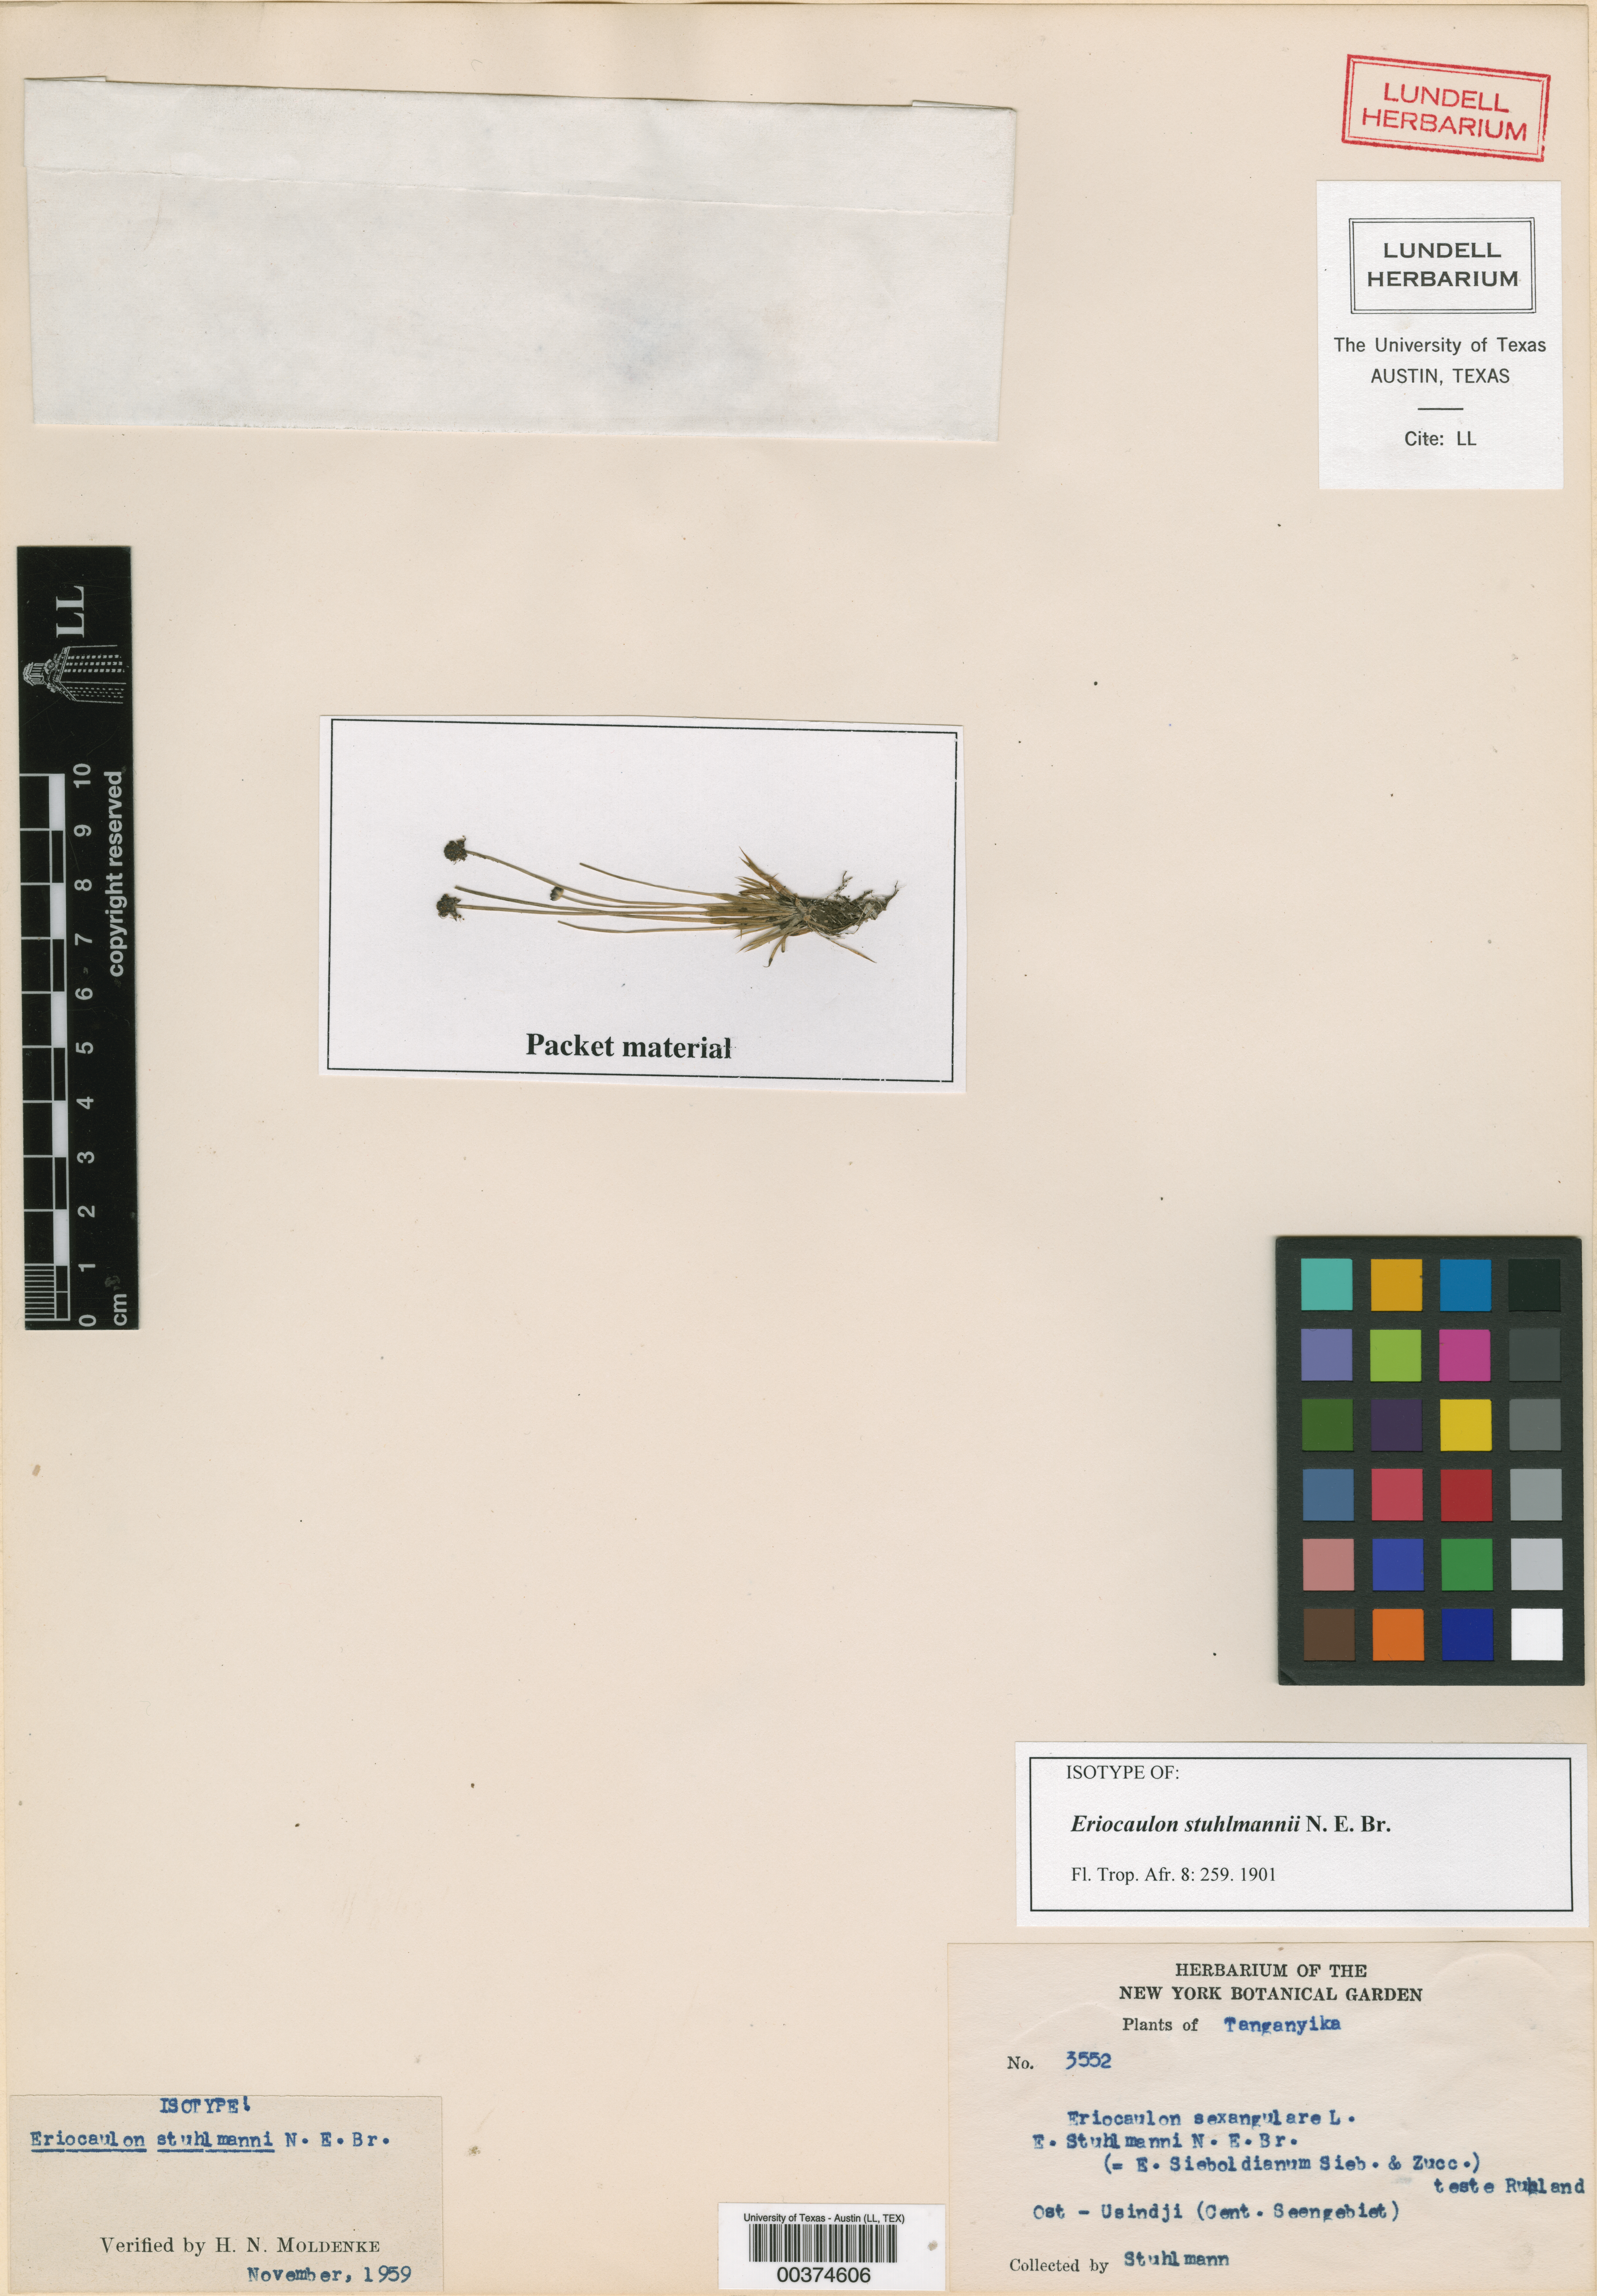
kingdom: Plantae
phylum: Tracheophyta
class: Liliopsida
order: Poales
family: Eriocaulaceae
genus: Eriocaulon
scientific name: Eriocaulon cinereum
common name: Ashy pipewort
